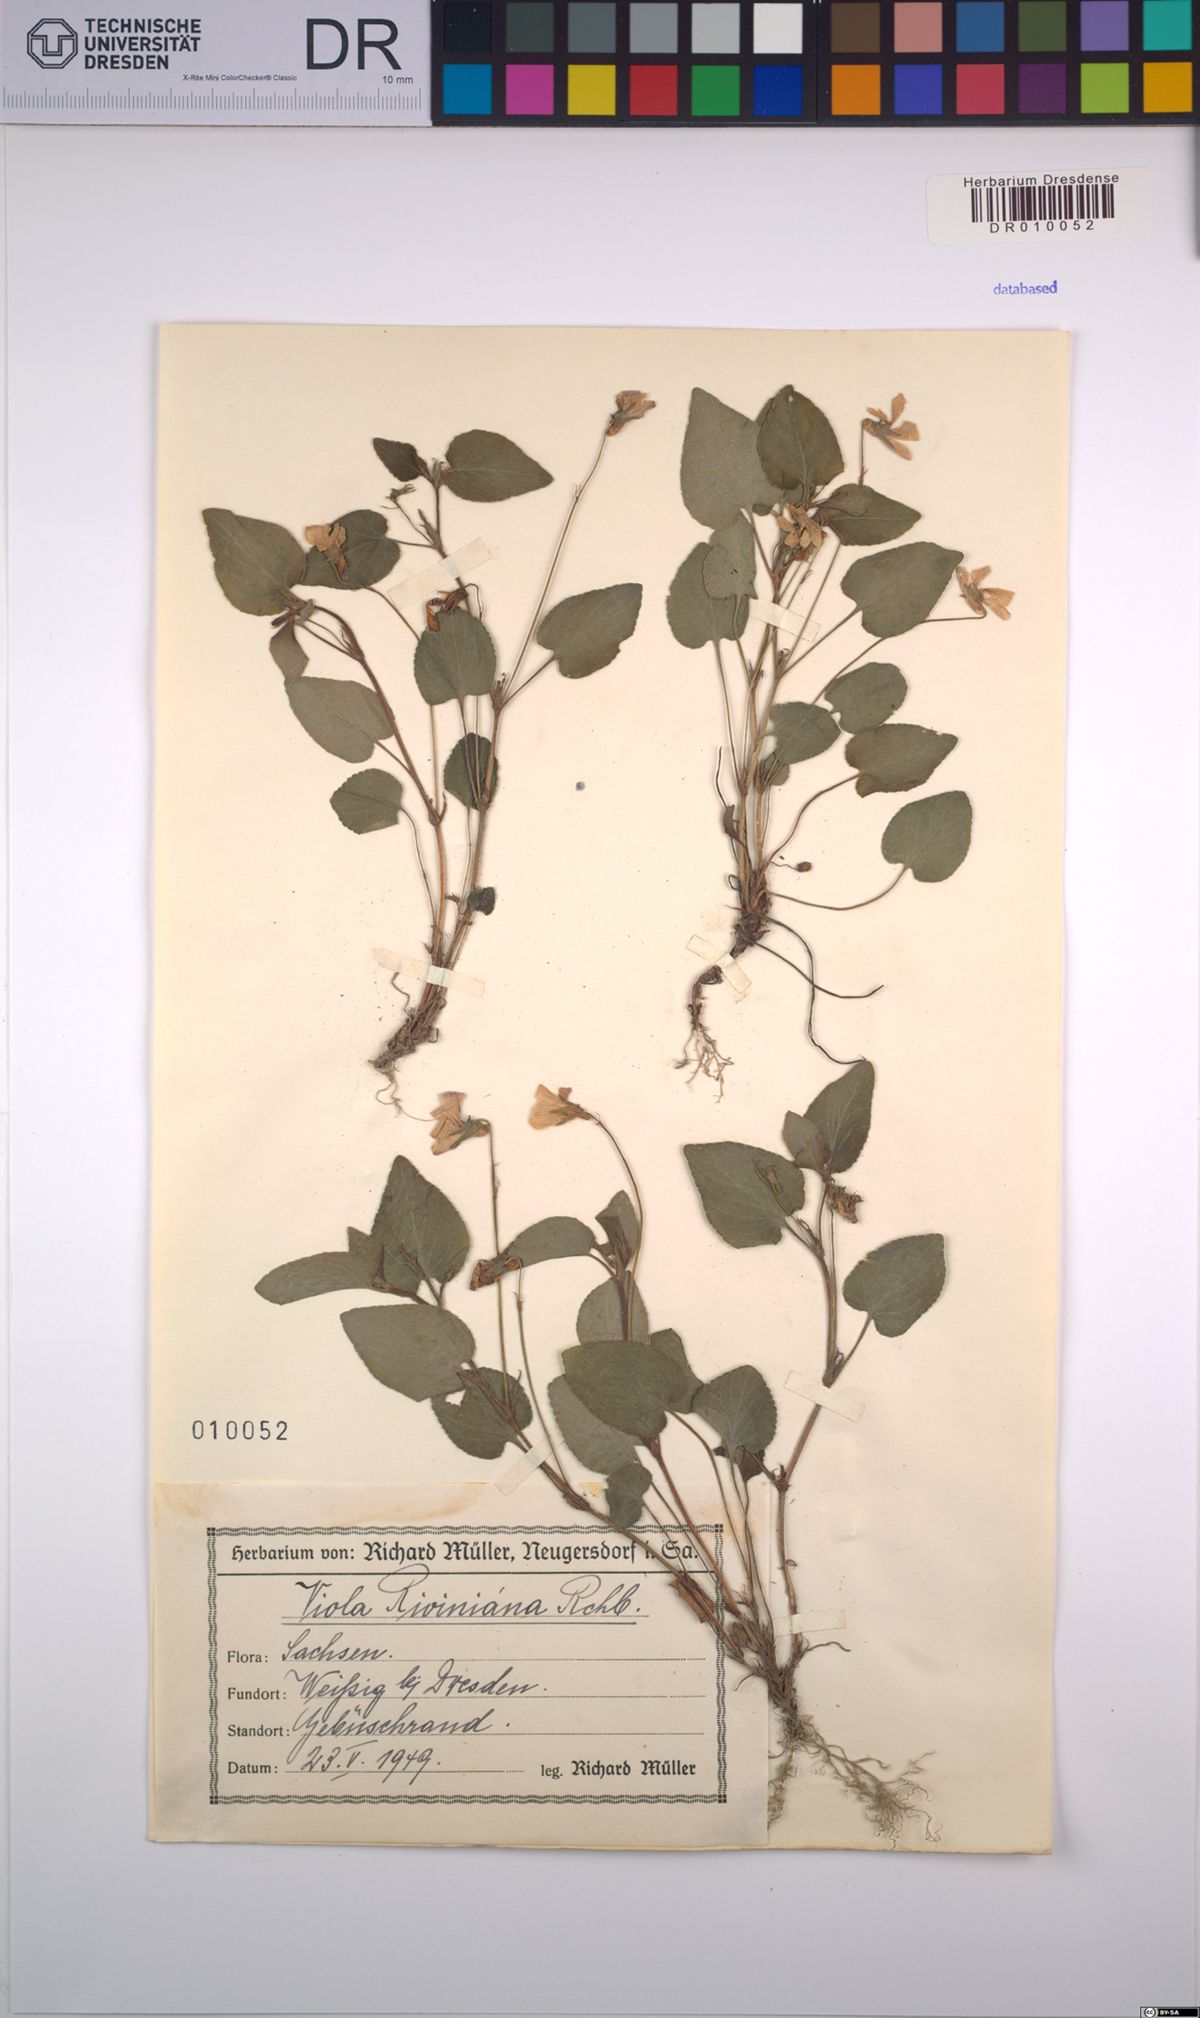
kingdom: Plantae
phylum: Tracheophyta
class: Magnoliopsida
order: Malpighiales
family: Violaceae
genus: Viola
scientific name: Viola riviniana
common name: Common dog-violet
